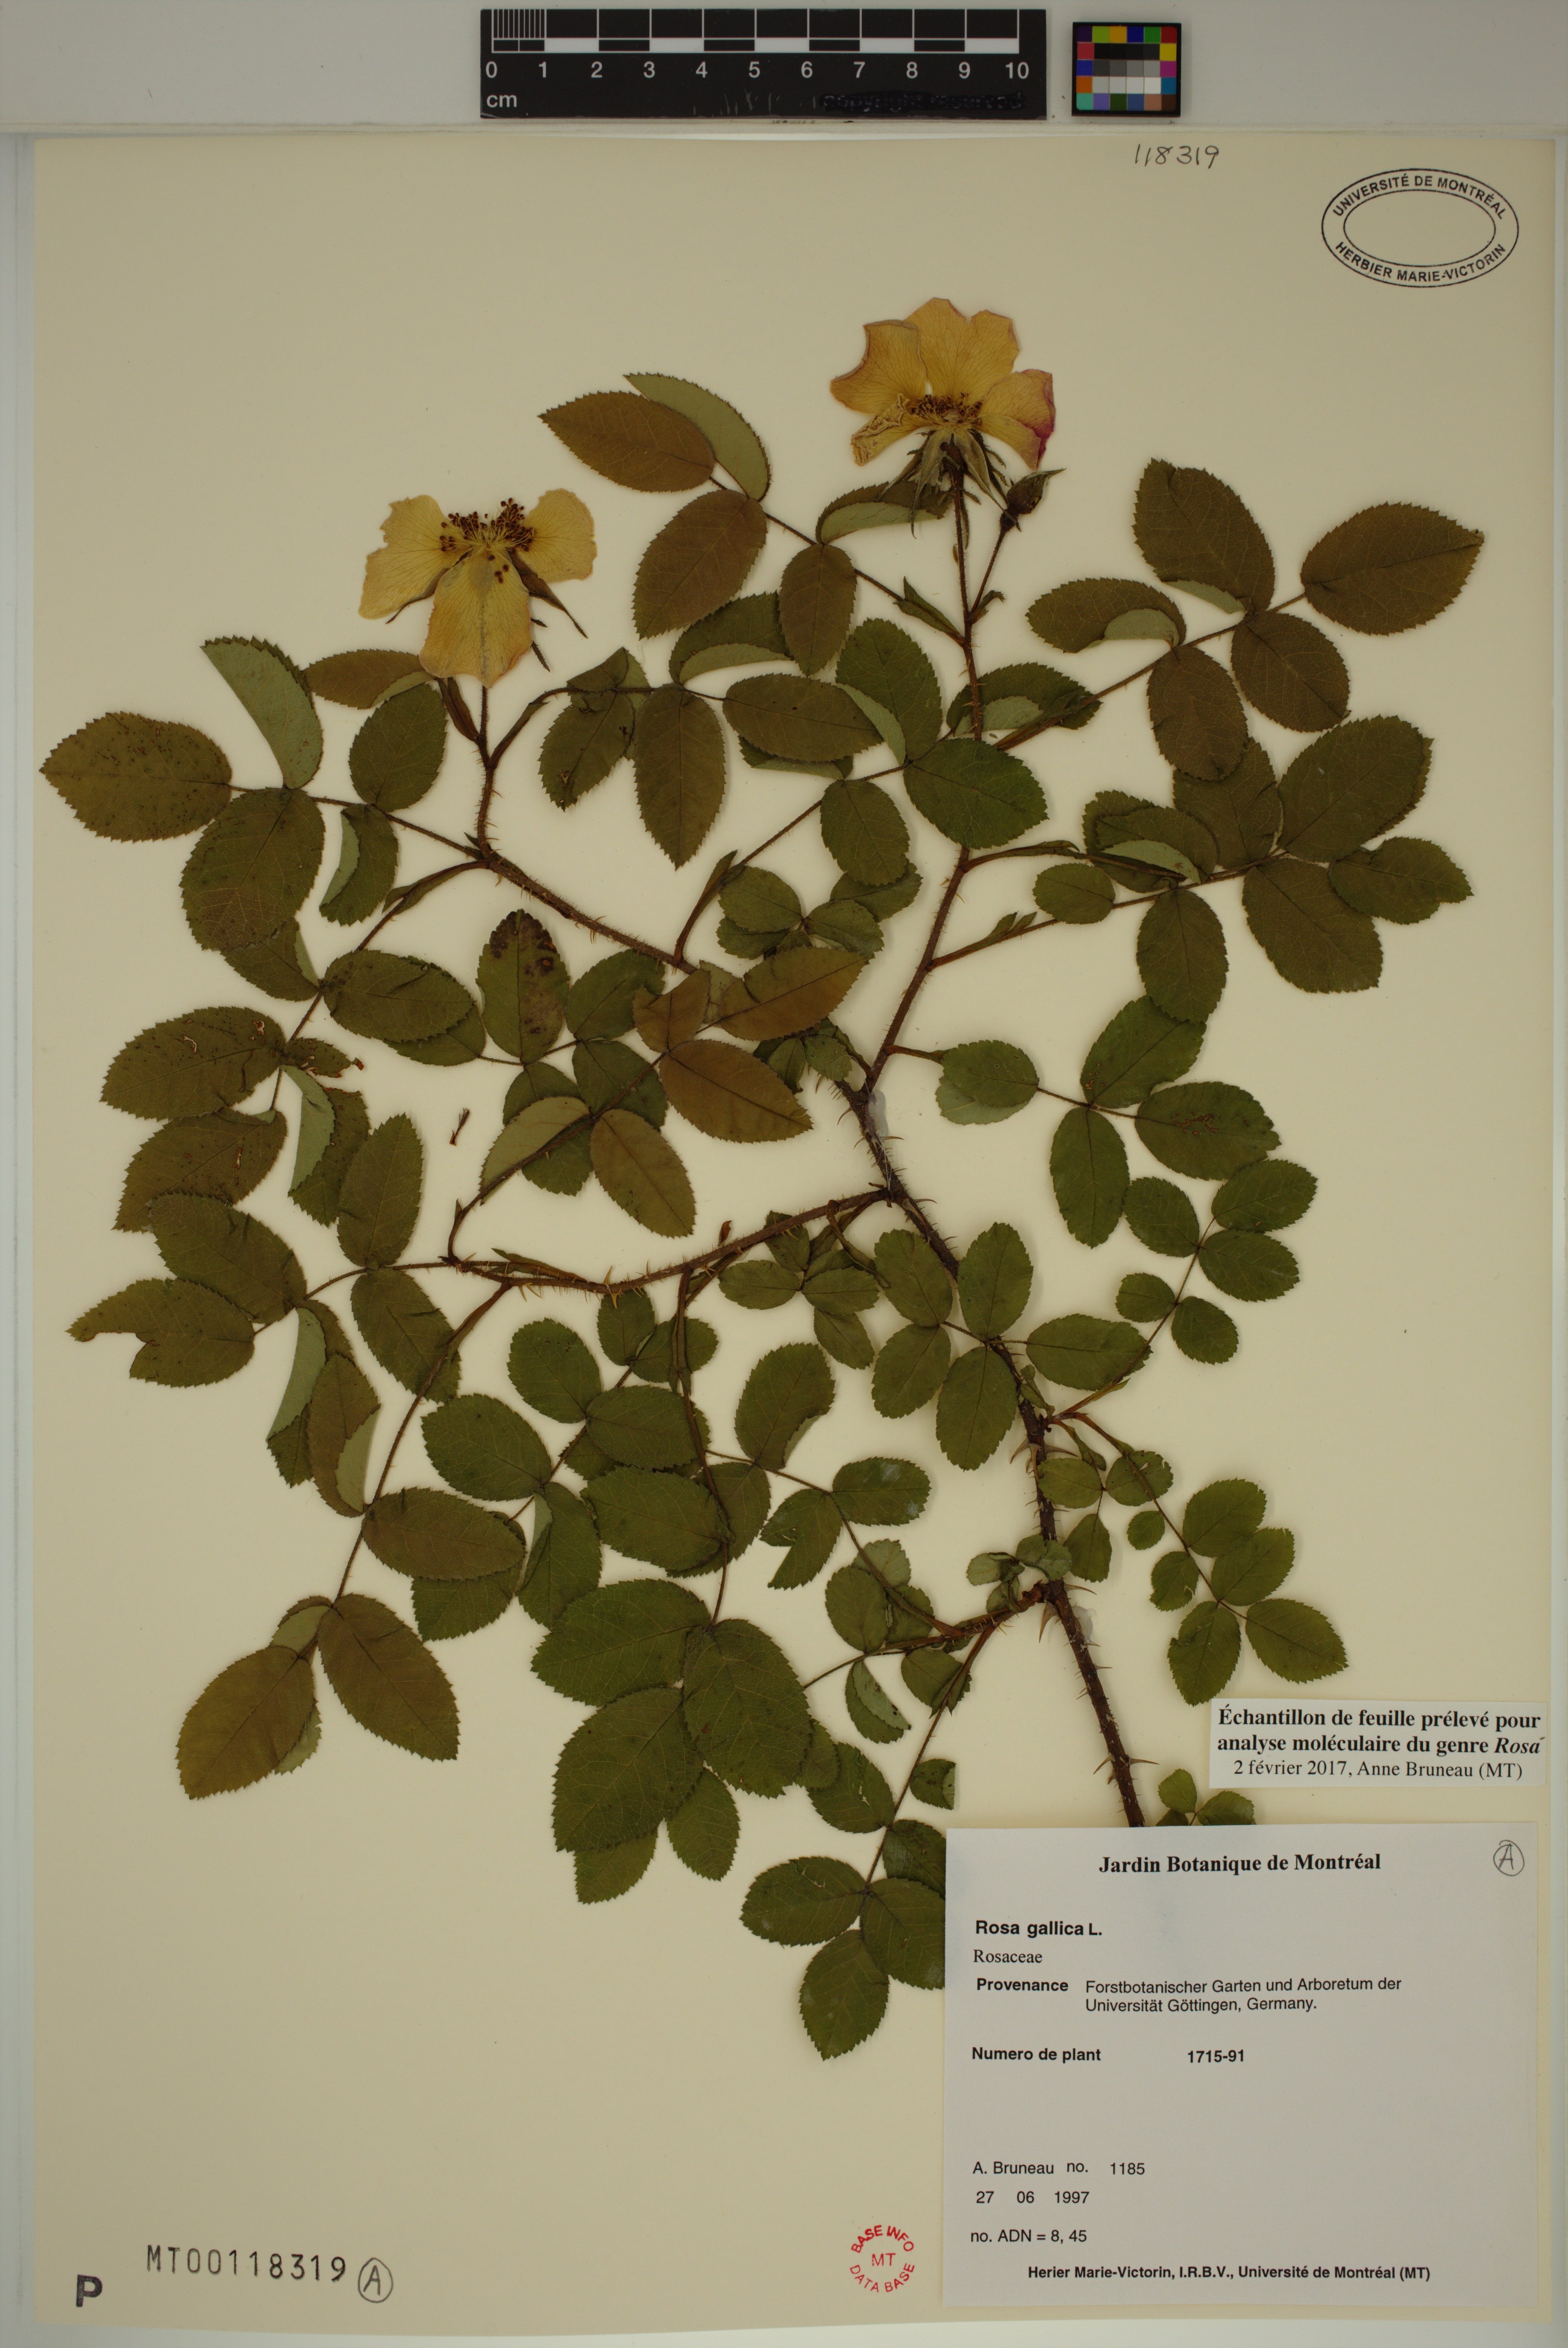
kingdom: Plantae
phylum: Tracheophyta
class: Magnoliopsida
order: Rosales
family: Rosaceae
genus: Rosa
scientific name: Rosa gallica
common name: French rose
